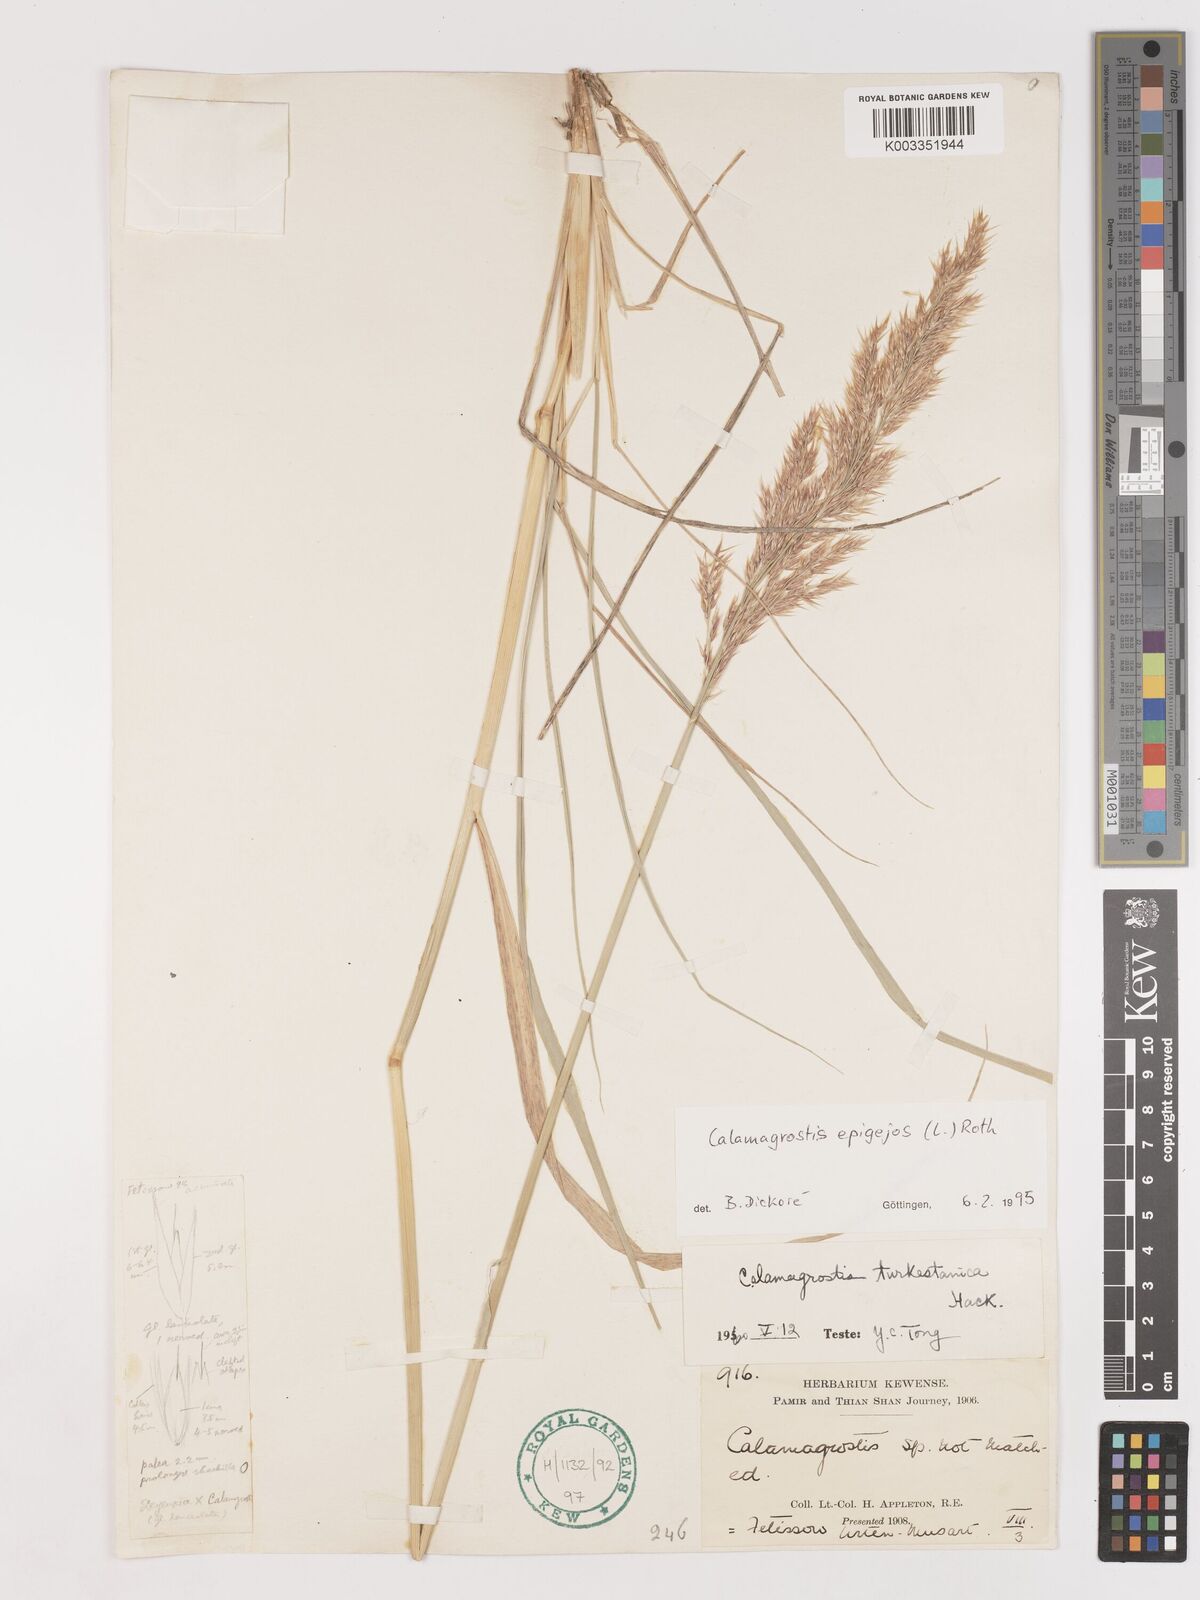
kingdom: Plantae
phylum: Tracheophyta
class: Liliopsida
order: Poales
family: Poaceae
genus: Calamagrostis
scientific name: Calamagrostis epigejos
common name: Wood small-reed
